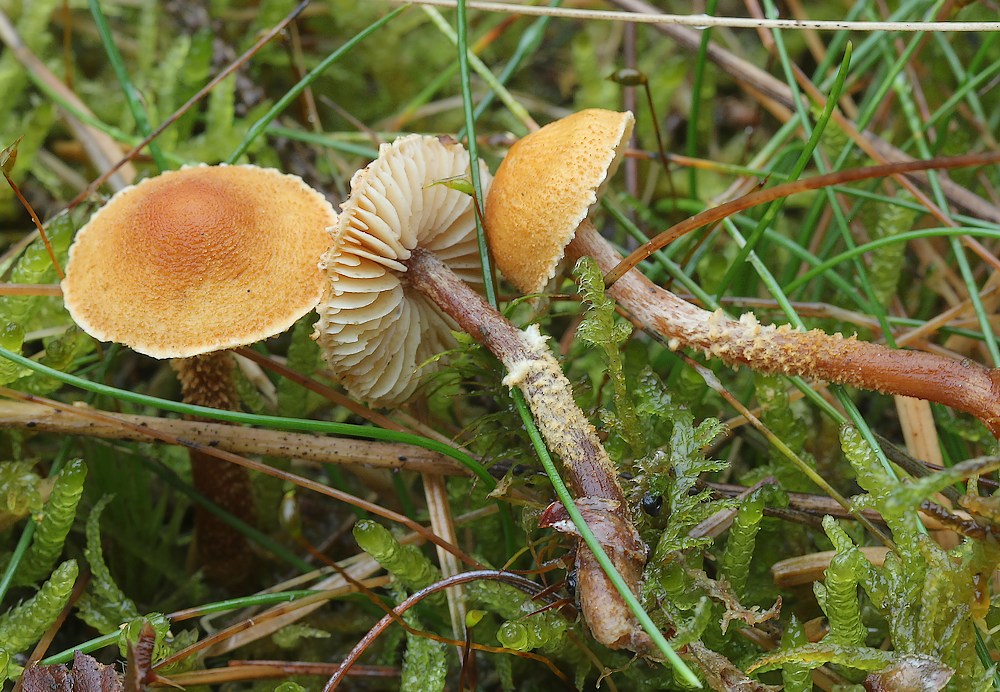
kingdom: Fungi
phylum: Basidiomycota
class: Agaricomycetes
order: Agaricales
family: Tricholomataceae
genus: Cystoderma
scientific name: Cystoderma jasonis
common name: gulkødet grynhat
